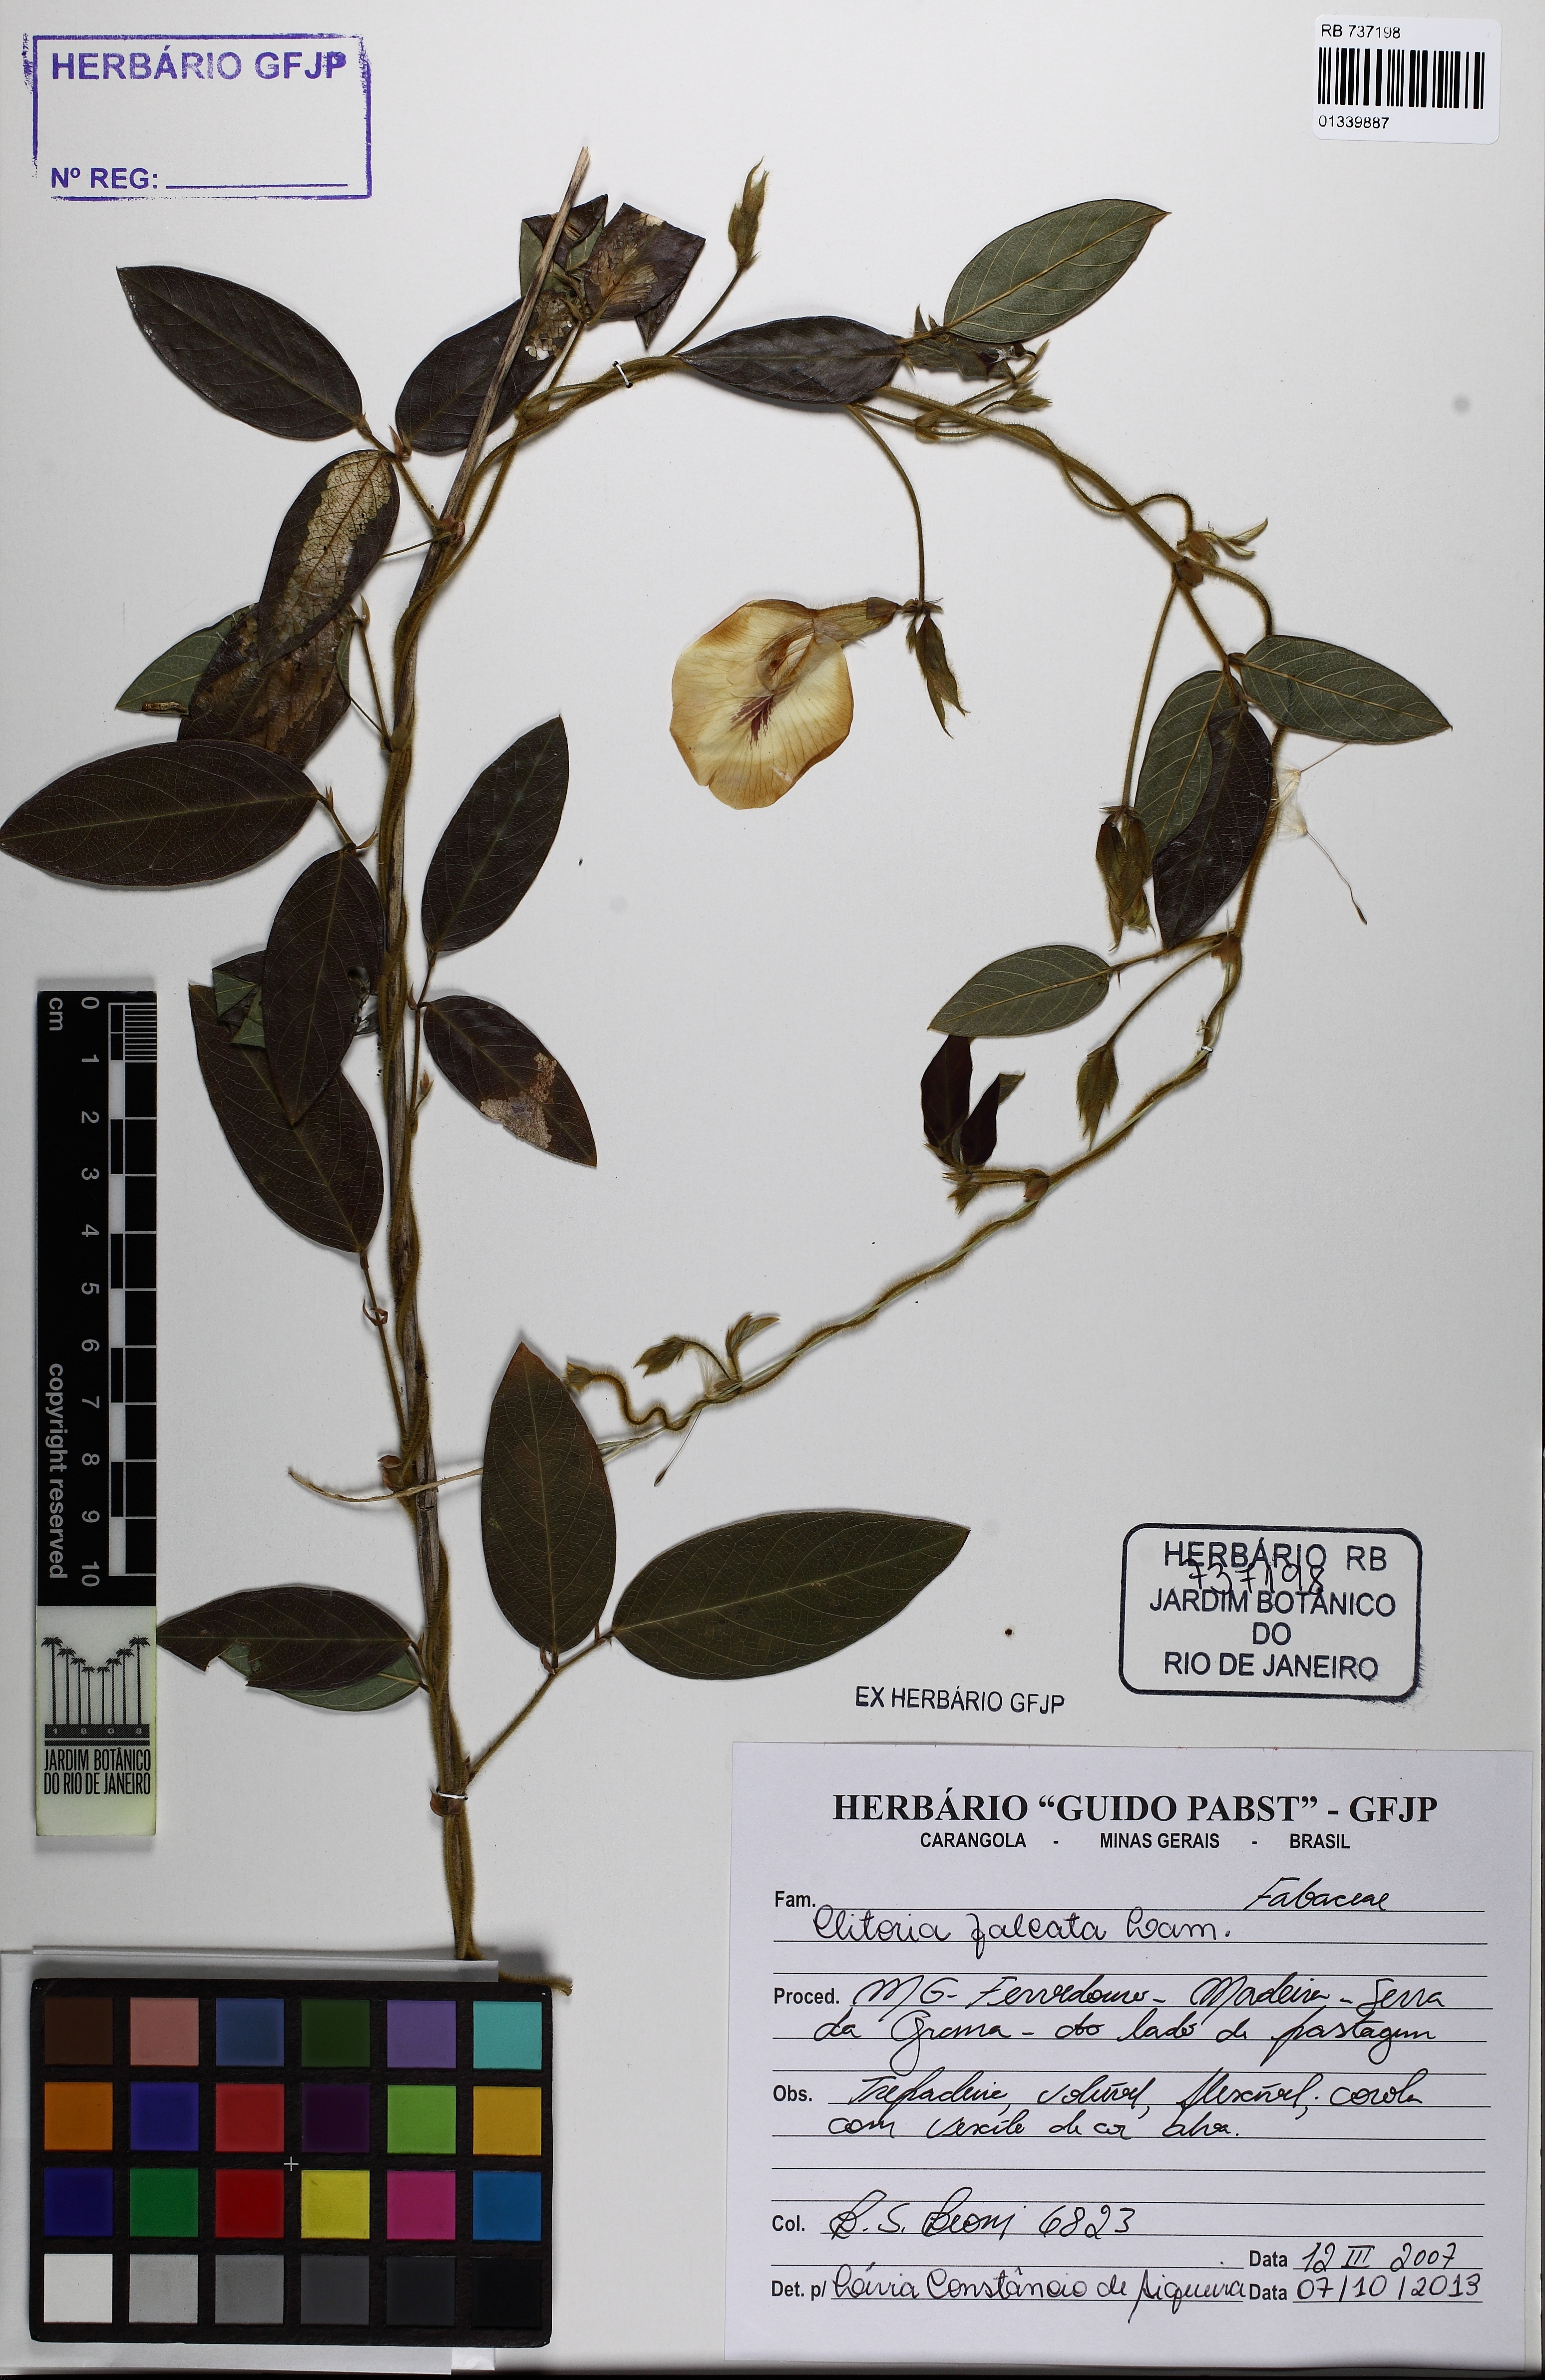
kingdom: Plantae
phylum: Tracheophyta
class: Magnoliopsida
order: Fabales
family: Fabaceae
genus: Clitoria
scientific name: Clitoria falcata
